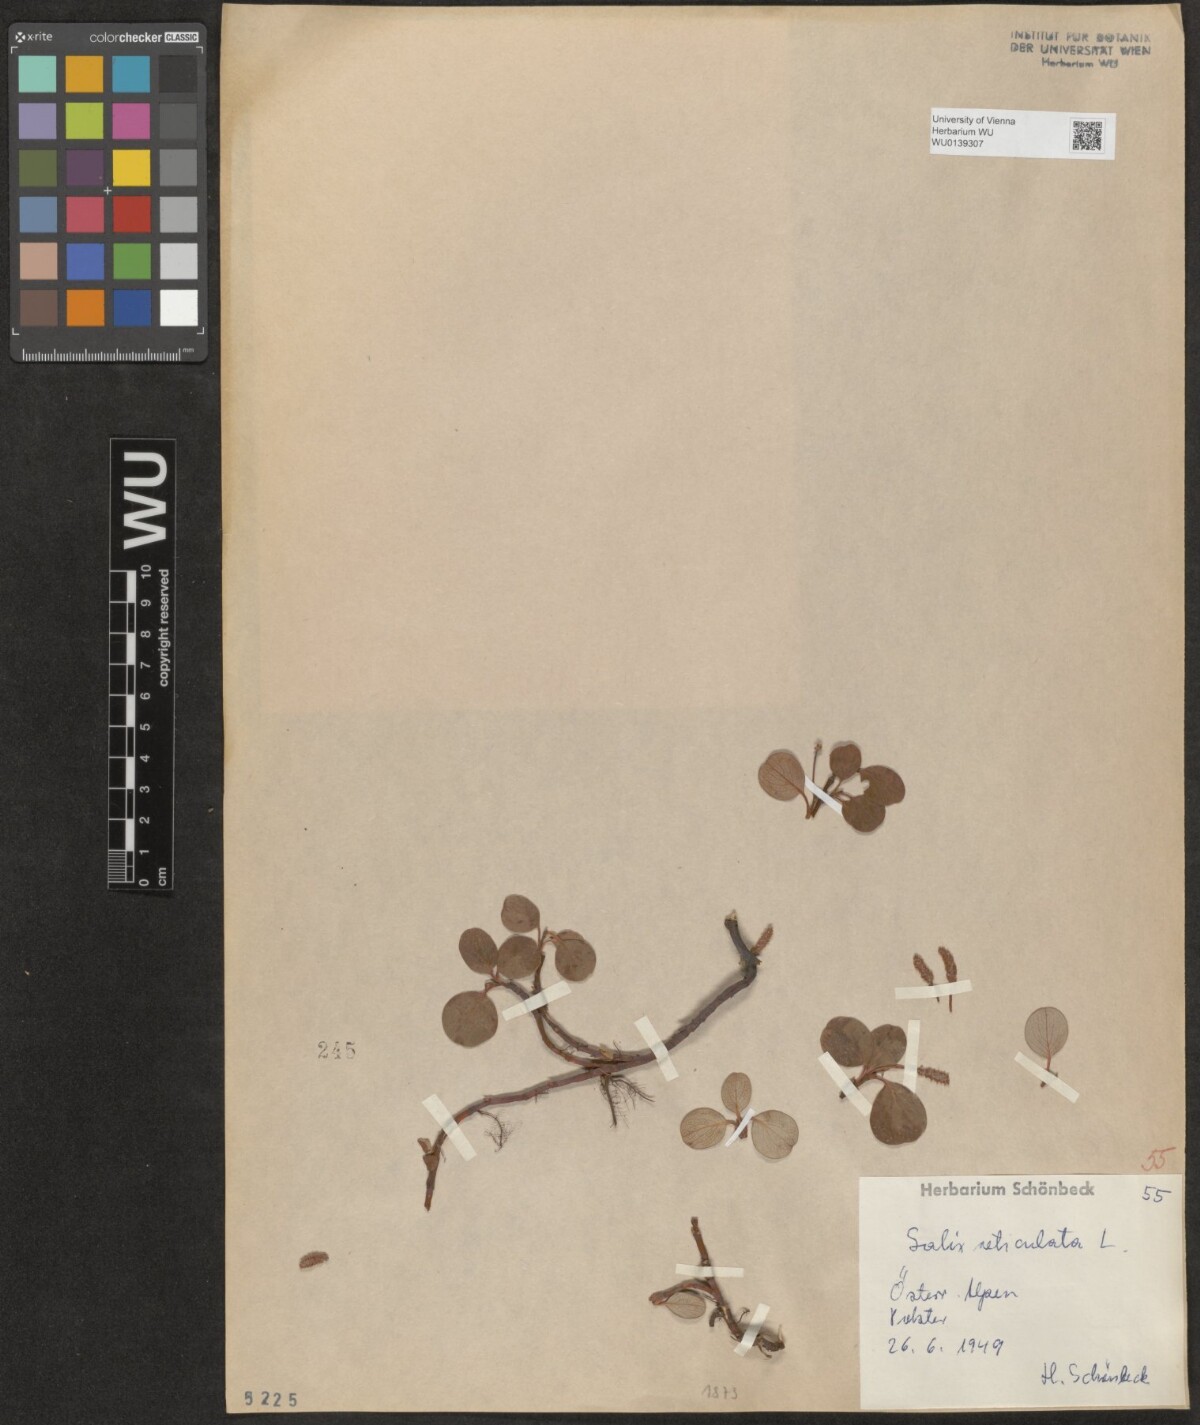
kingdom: Plantae
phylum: Tracheophyta
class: Magnoliopsida
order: Malpighiales
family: Salicaceae
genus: Salix
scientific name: Salix reticulata
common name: Net-leaved willow
